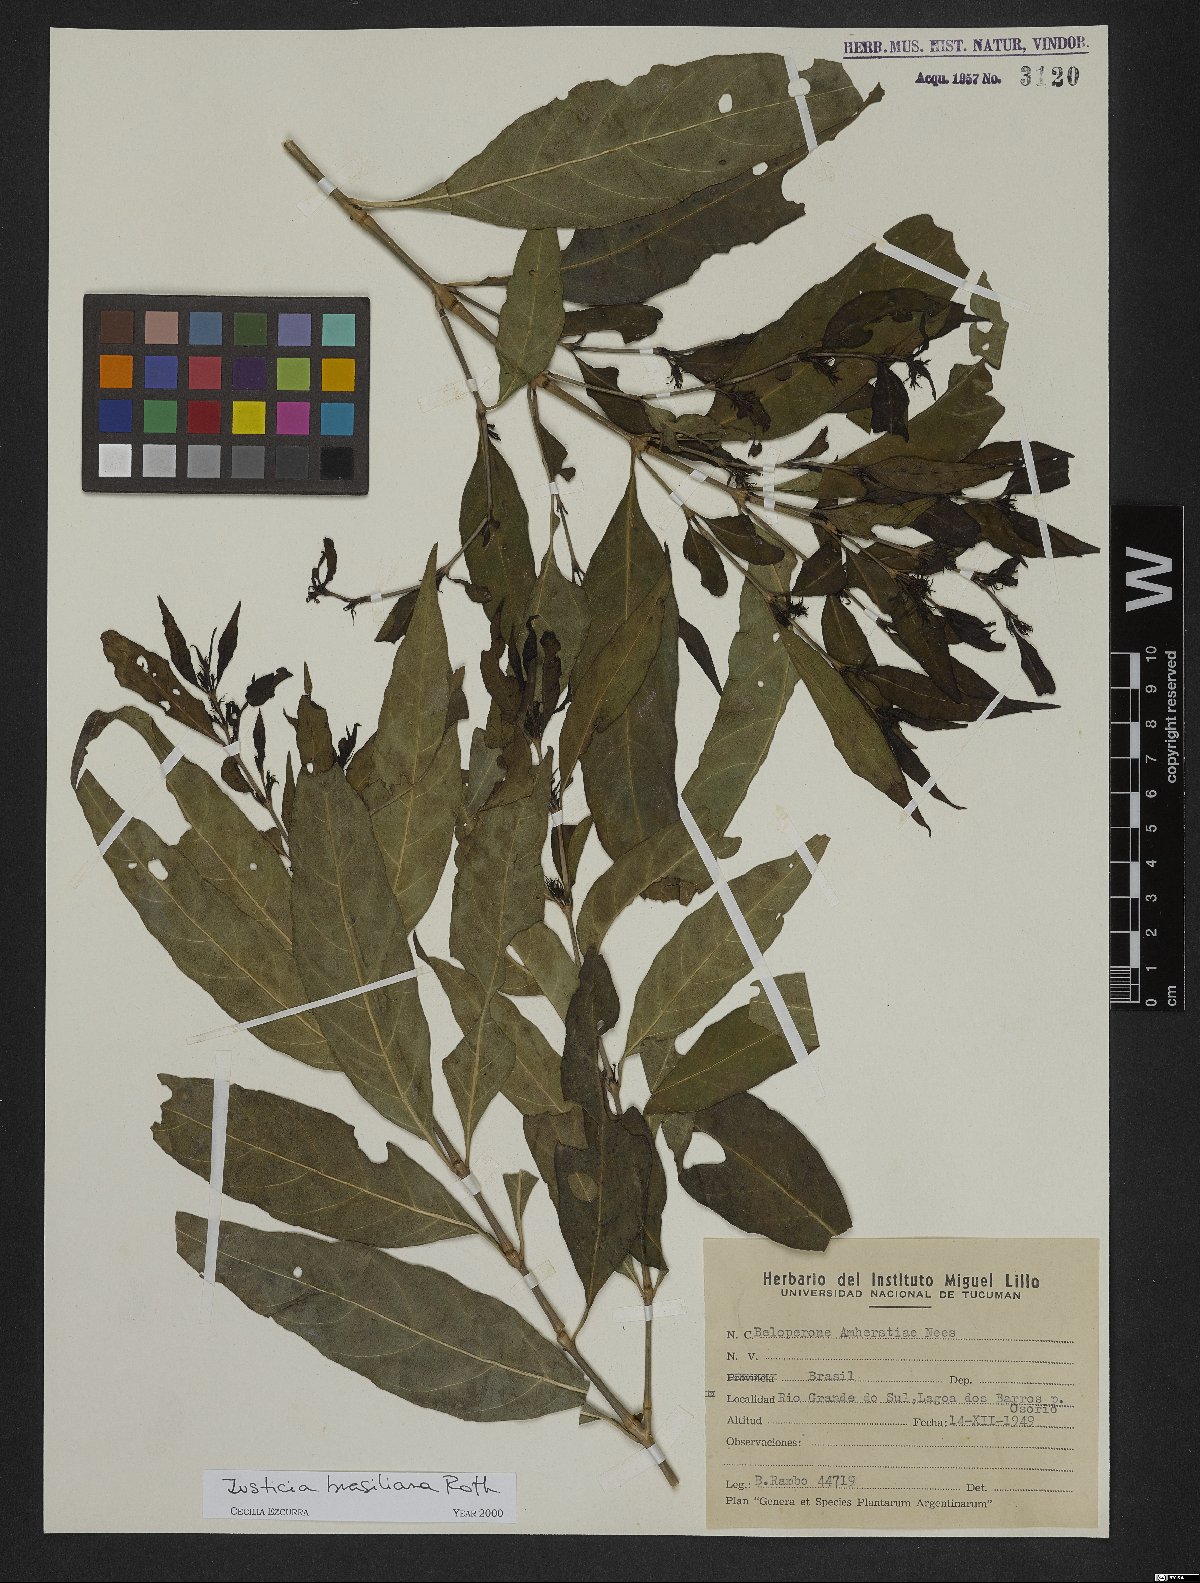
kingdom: Plantae
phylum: Tracheophyta
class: Magnoliopsida
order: Lamiales
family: Acanthaceae
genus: Justicia
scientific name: Justicia brasiliana
